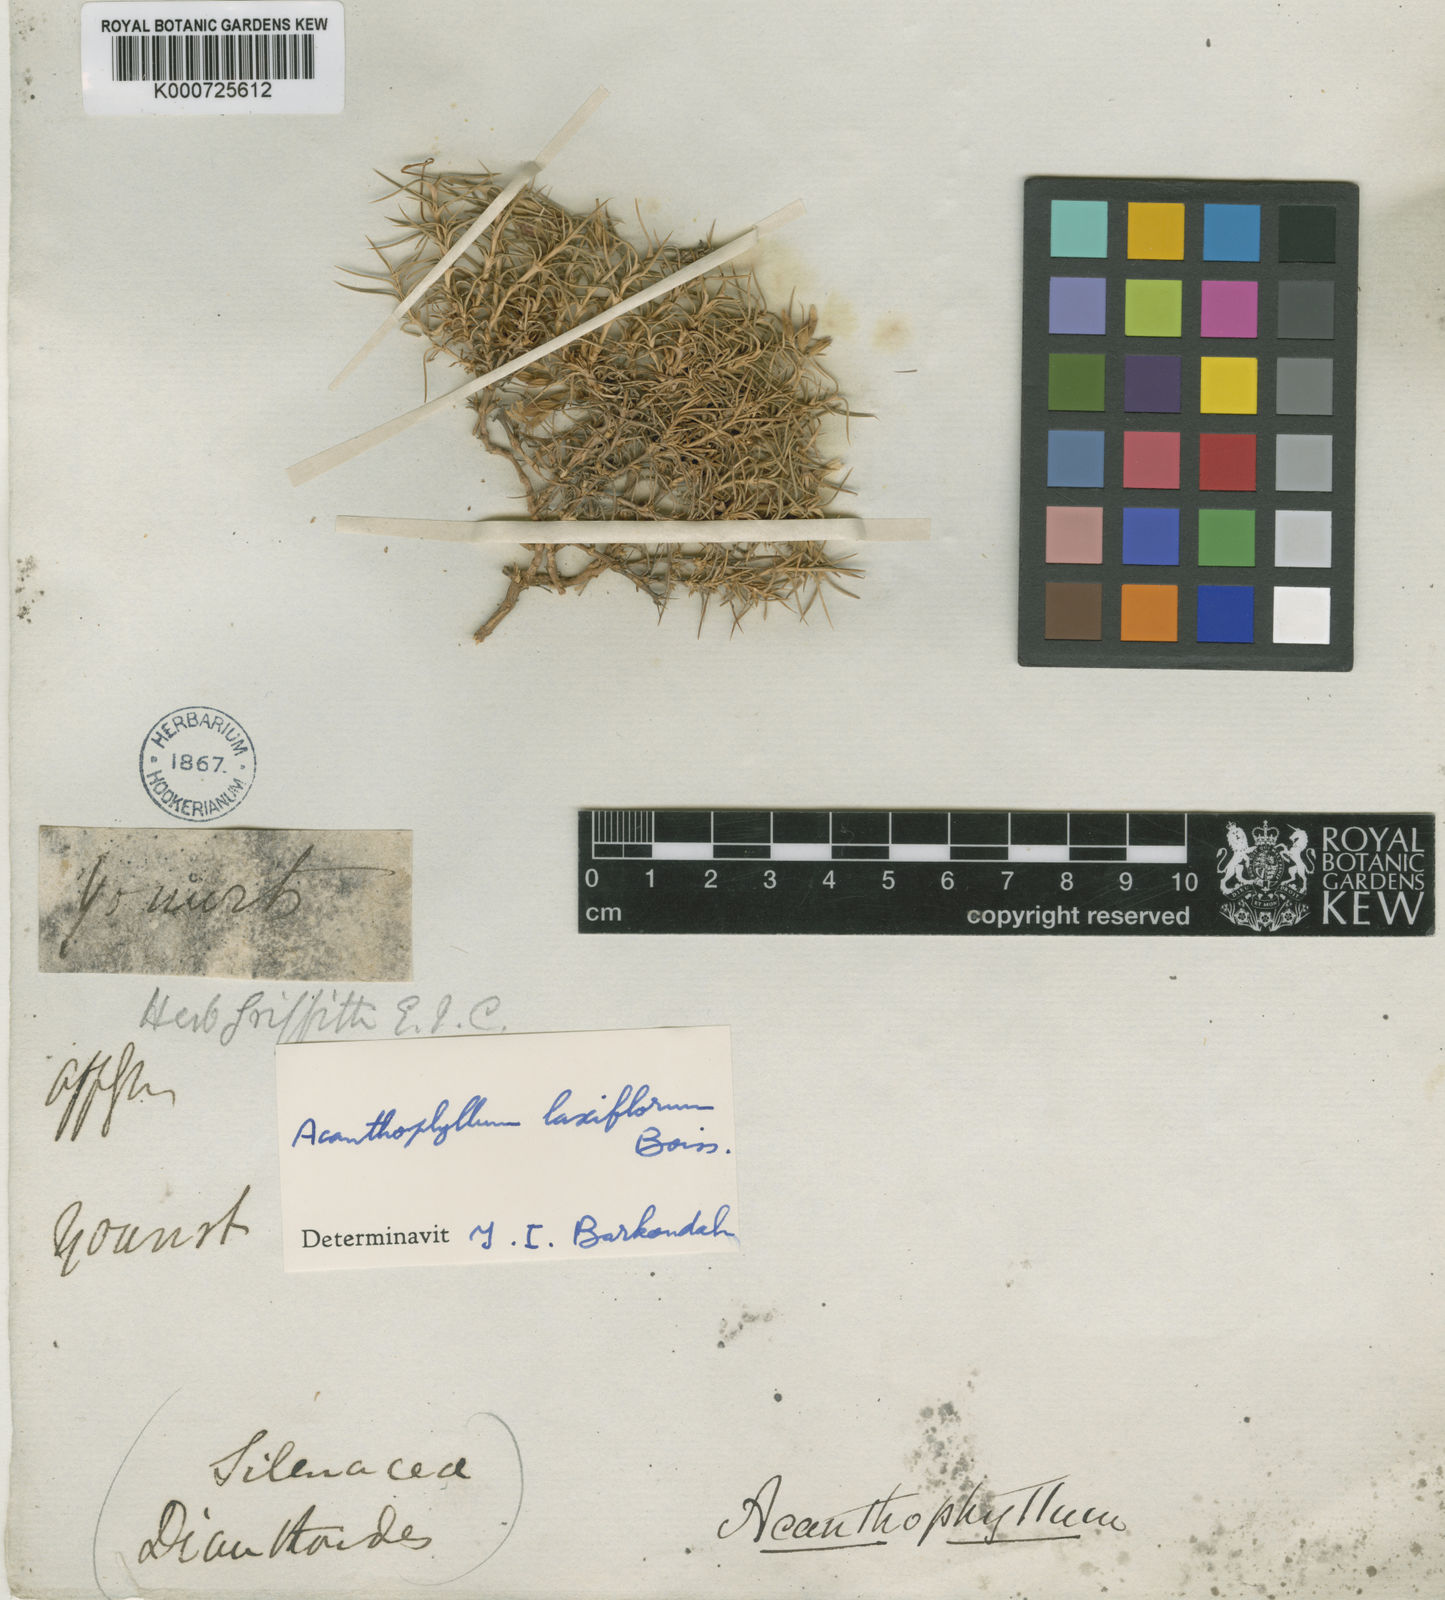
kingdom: Plantae
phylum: Tracheophyta
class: Magnoliopsida
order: Caryophyllales
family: Caryophyllaceae
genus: Acanthophyllum
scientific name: Acanthophyllum laxiflorum
